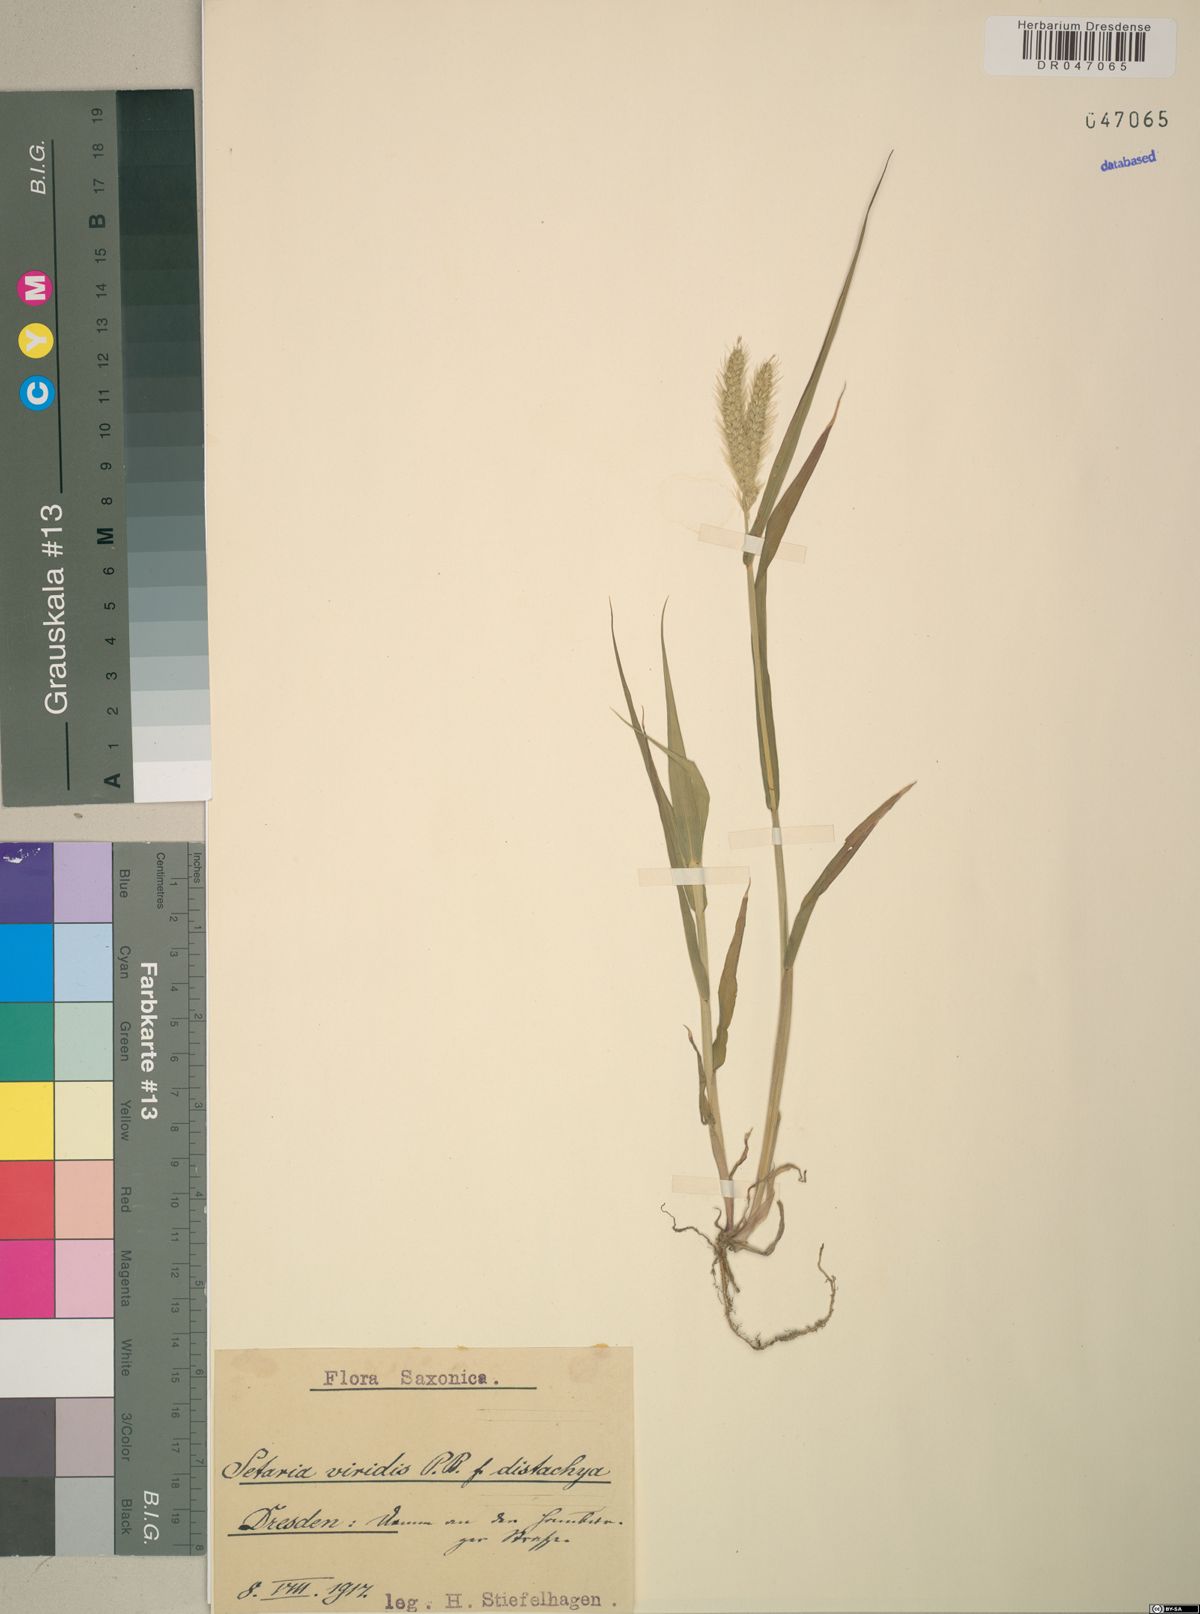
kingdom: Plantae
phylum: Tracheophyta
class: Liliopsida
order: Poales
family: Poaceae
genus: Setaria
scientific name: Setaria viridis
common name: Green bristlegrass
